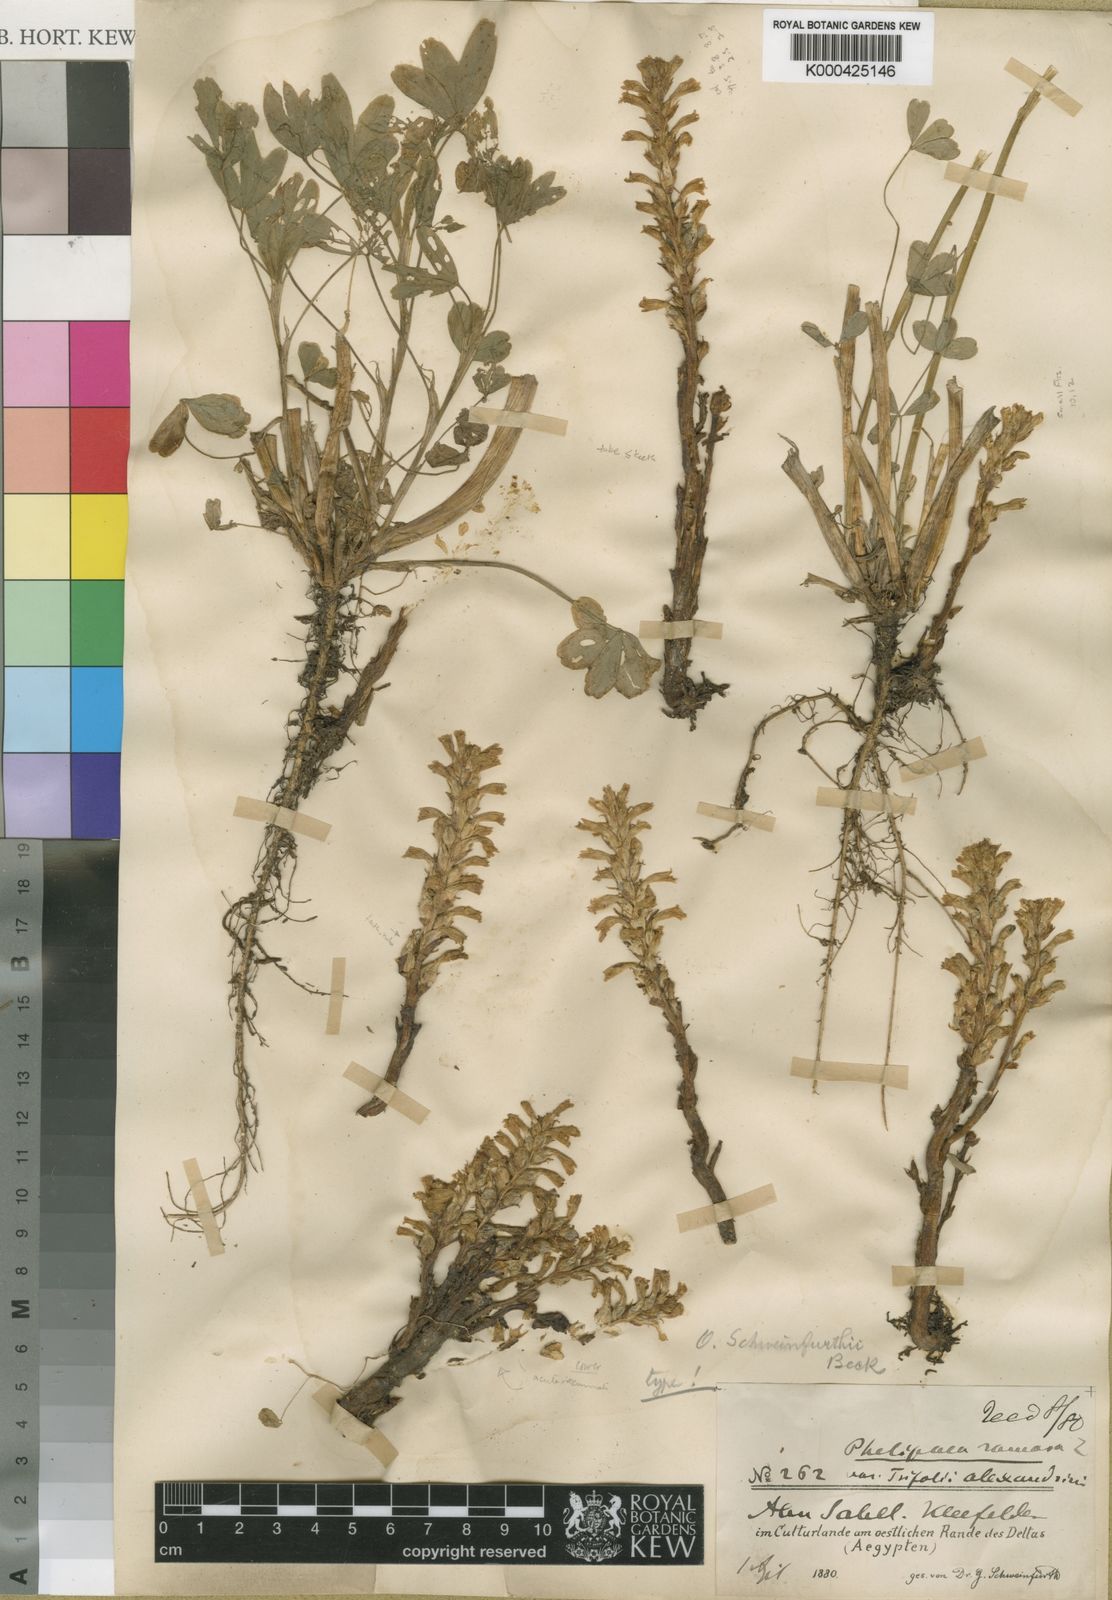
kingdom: Plantae
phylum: Tracheophyta
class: Magnoliopsida
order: Lamiales
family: Orobanchaceae
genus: Phelipanche
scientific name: Phelipanche schweinfurthii
